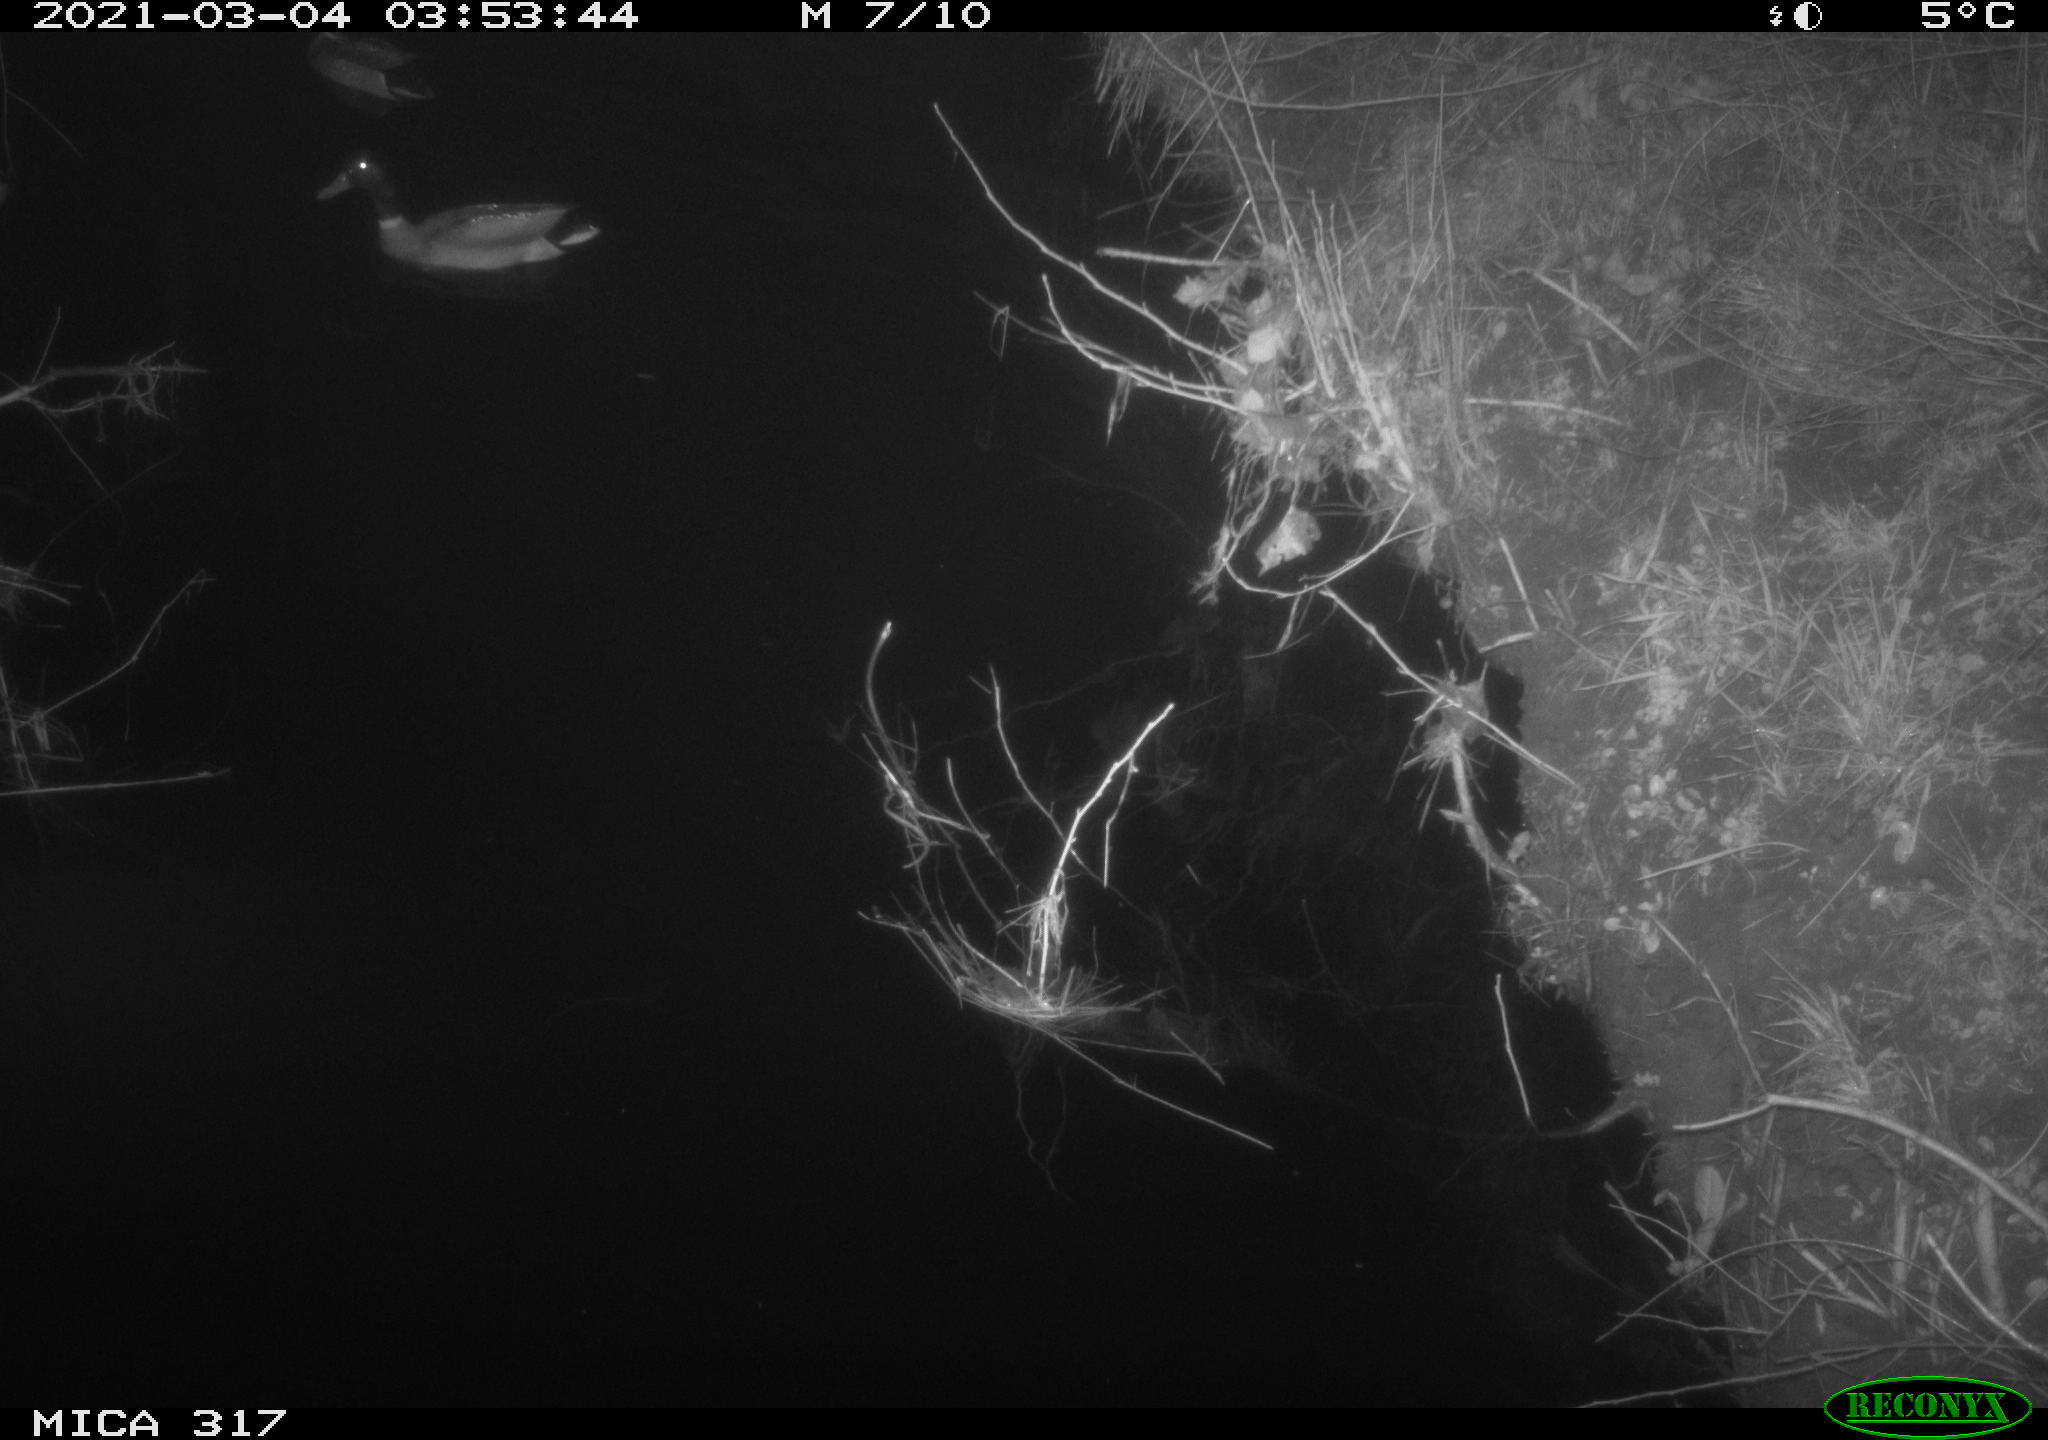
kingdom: Animalia
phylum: Chordata
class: Aves
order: Anseriformes
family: Anatidae
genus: Anas
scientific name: Anas platyrhynchos
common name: Mallard
